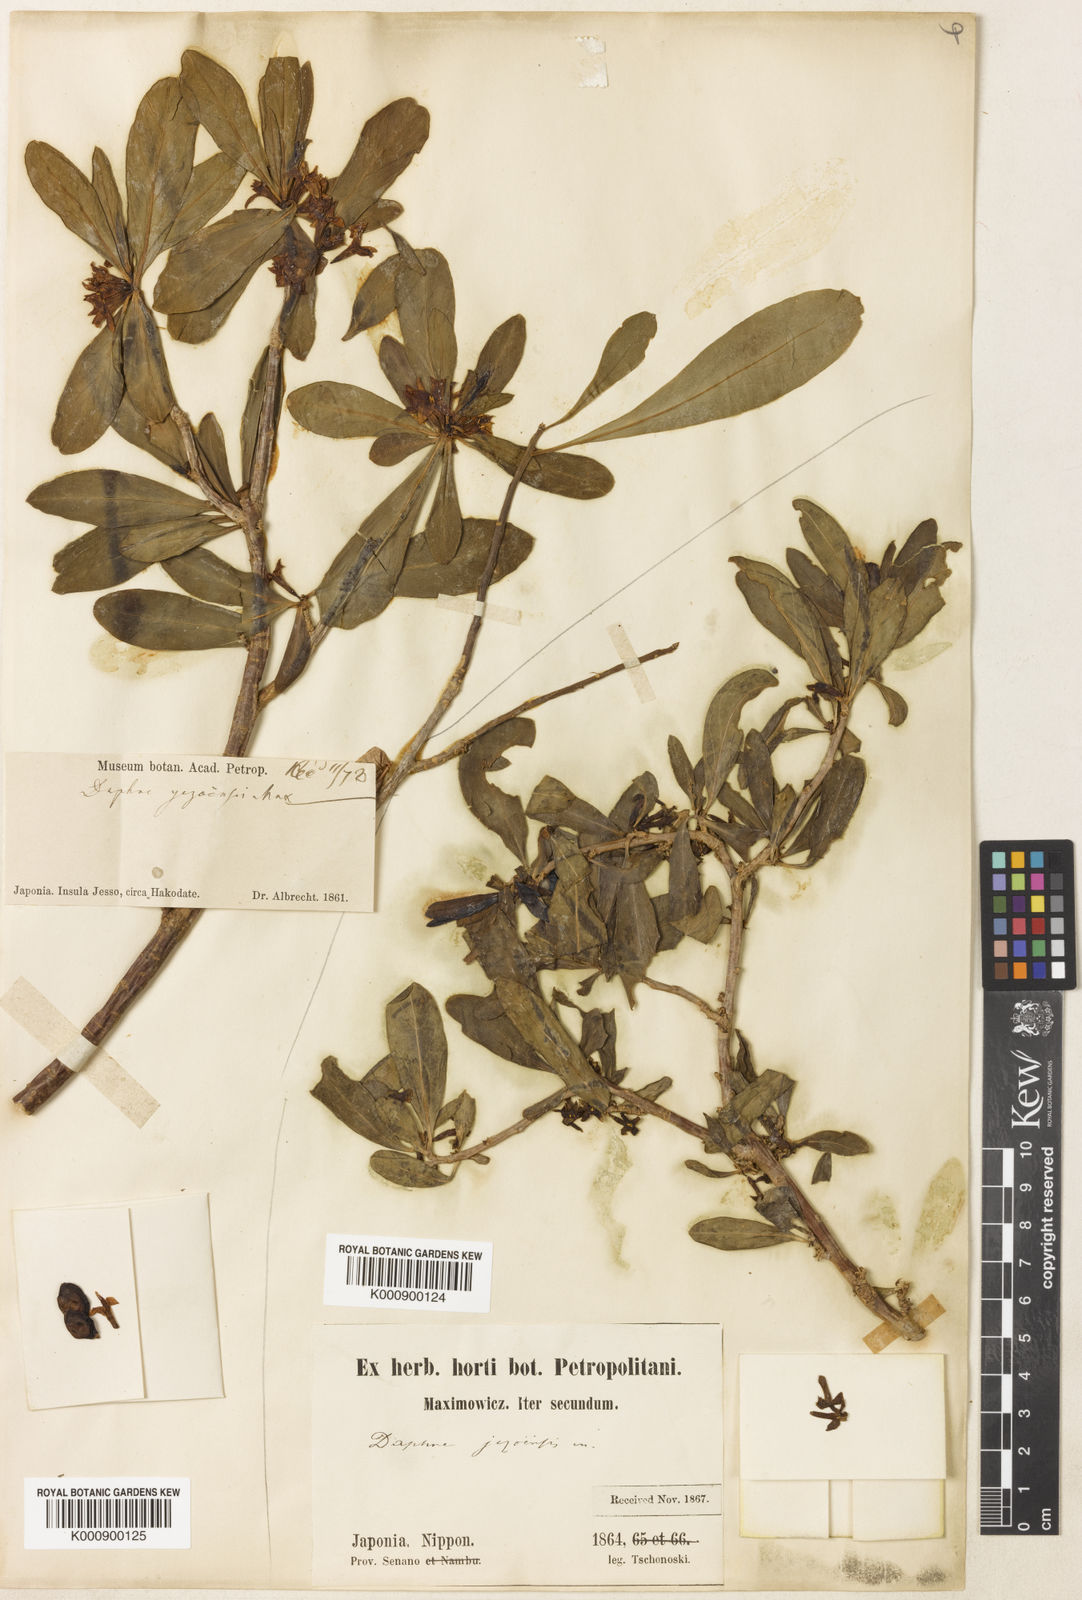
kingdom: Plantae
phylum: Tracheophyta
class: Magnoliopsida
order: Malvales
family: Thymelaeaceae
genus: Daphne
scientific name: Daphne jezoensis
